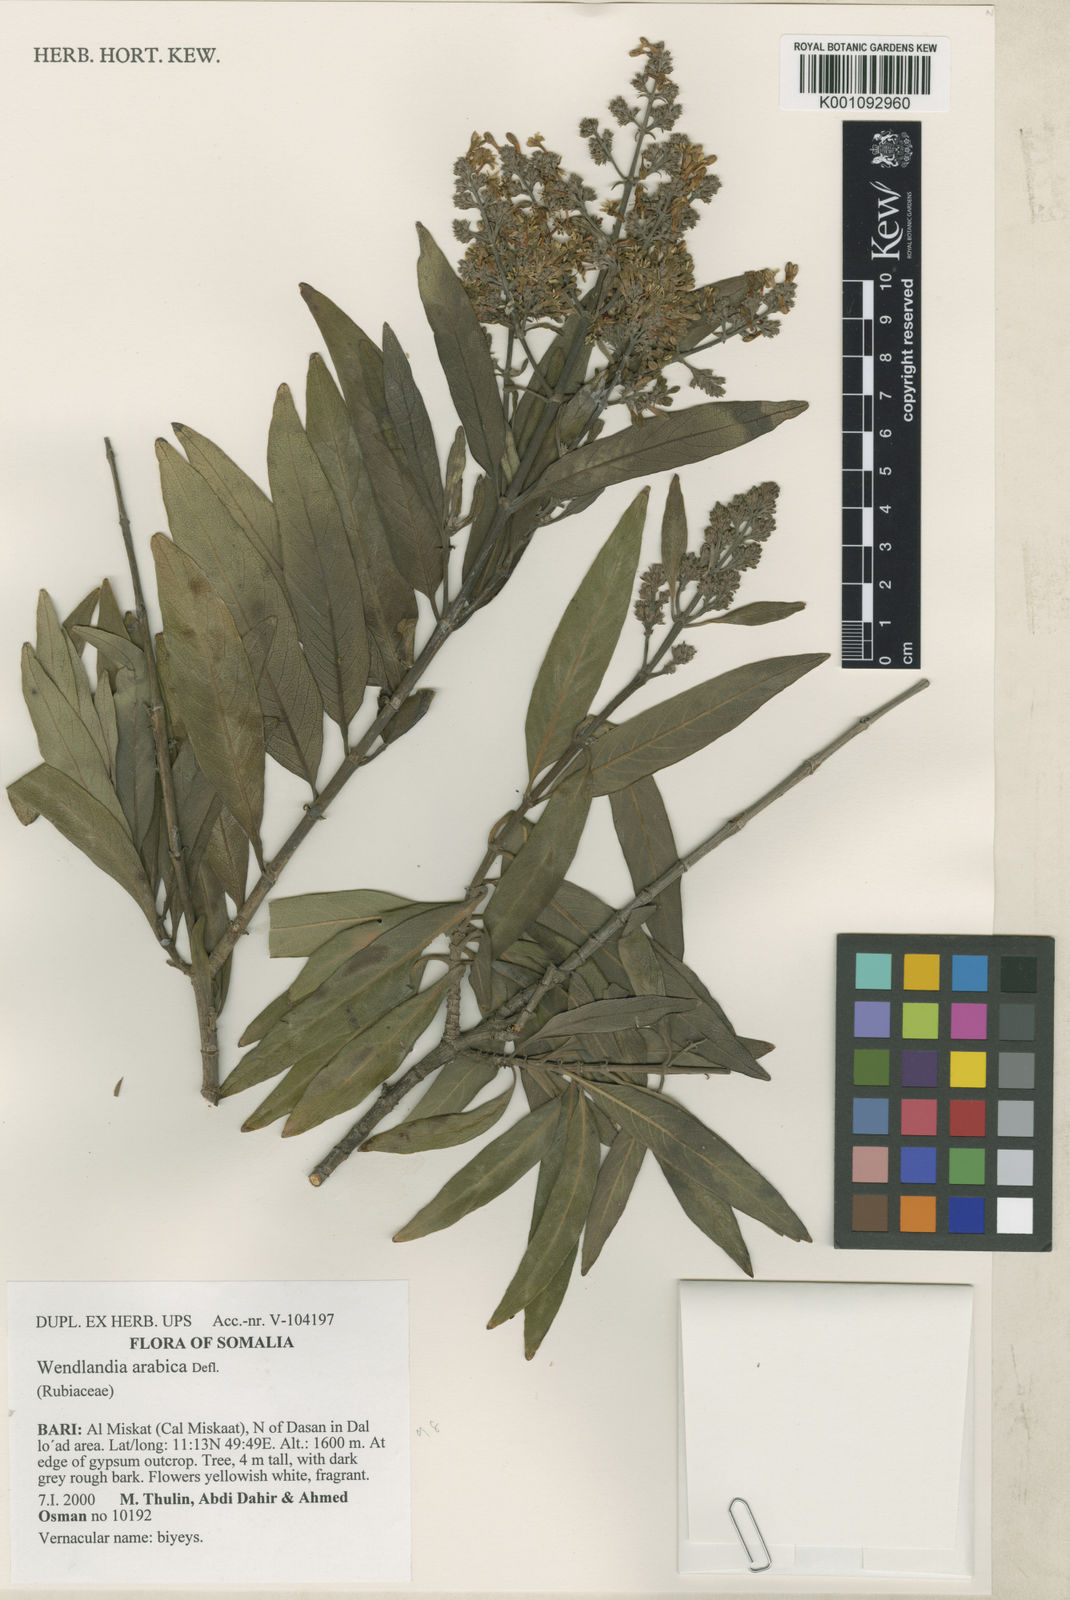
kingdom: Plantae
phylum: Tracheophyta
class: Magnoliopsida
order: Gentianales
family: Rubiaceae
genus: Wendlandia
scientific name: Wendlandia arabica
